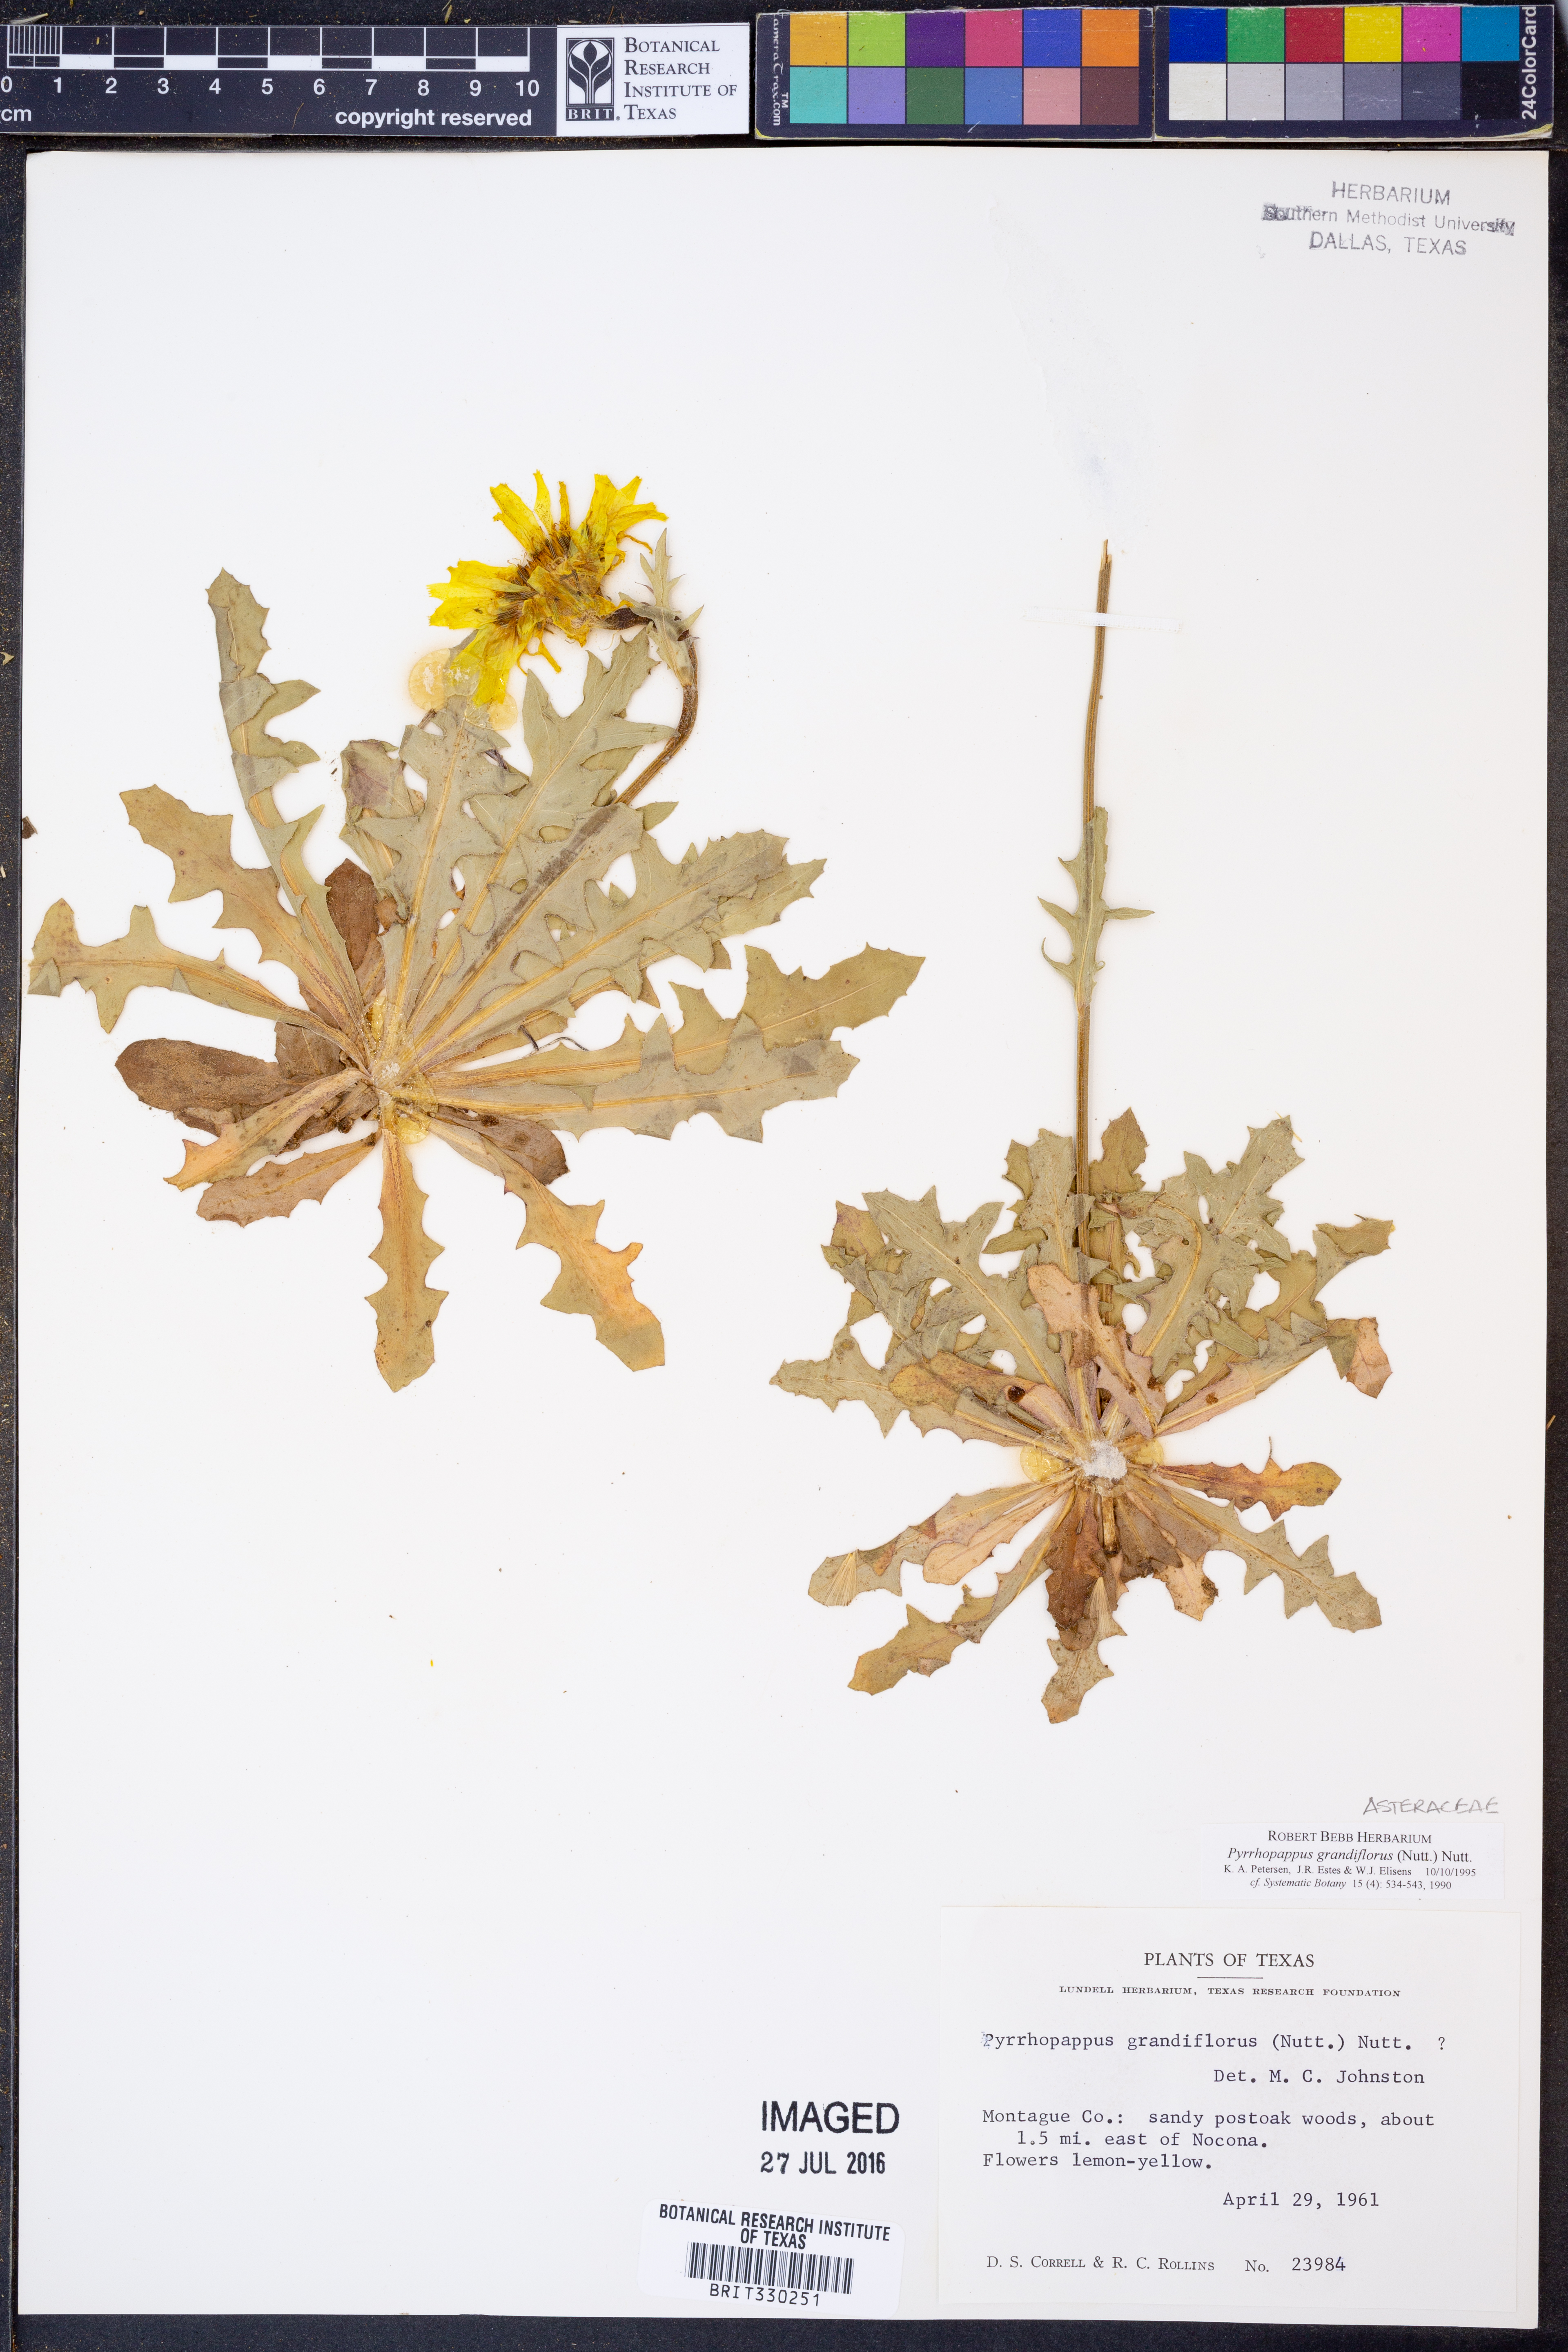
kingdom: Plantae
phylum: Tracheophyta
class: Magnoliopsida
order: Asterales
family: Asteraceae
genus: Pyrrhopappus
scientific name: Pyrrhopappus grandiflorus
